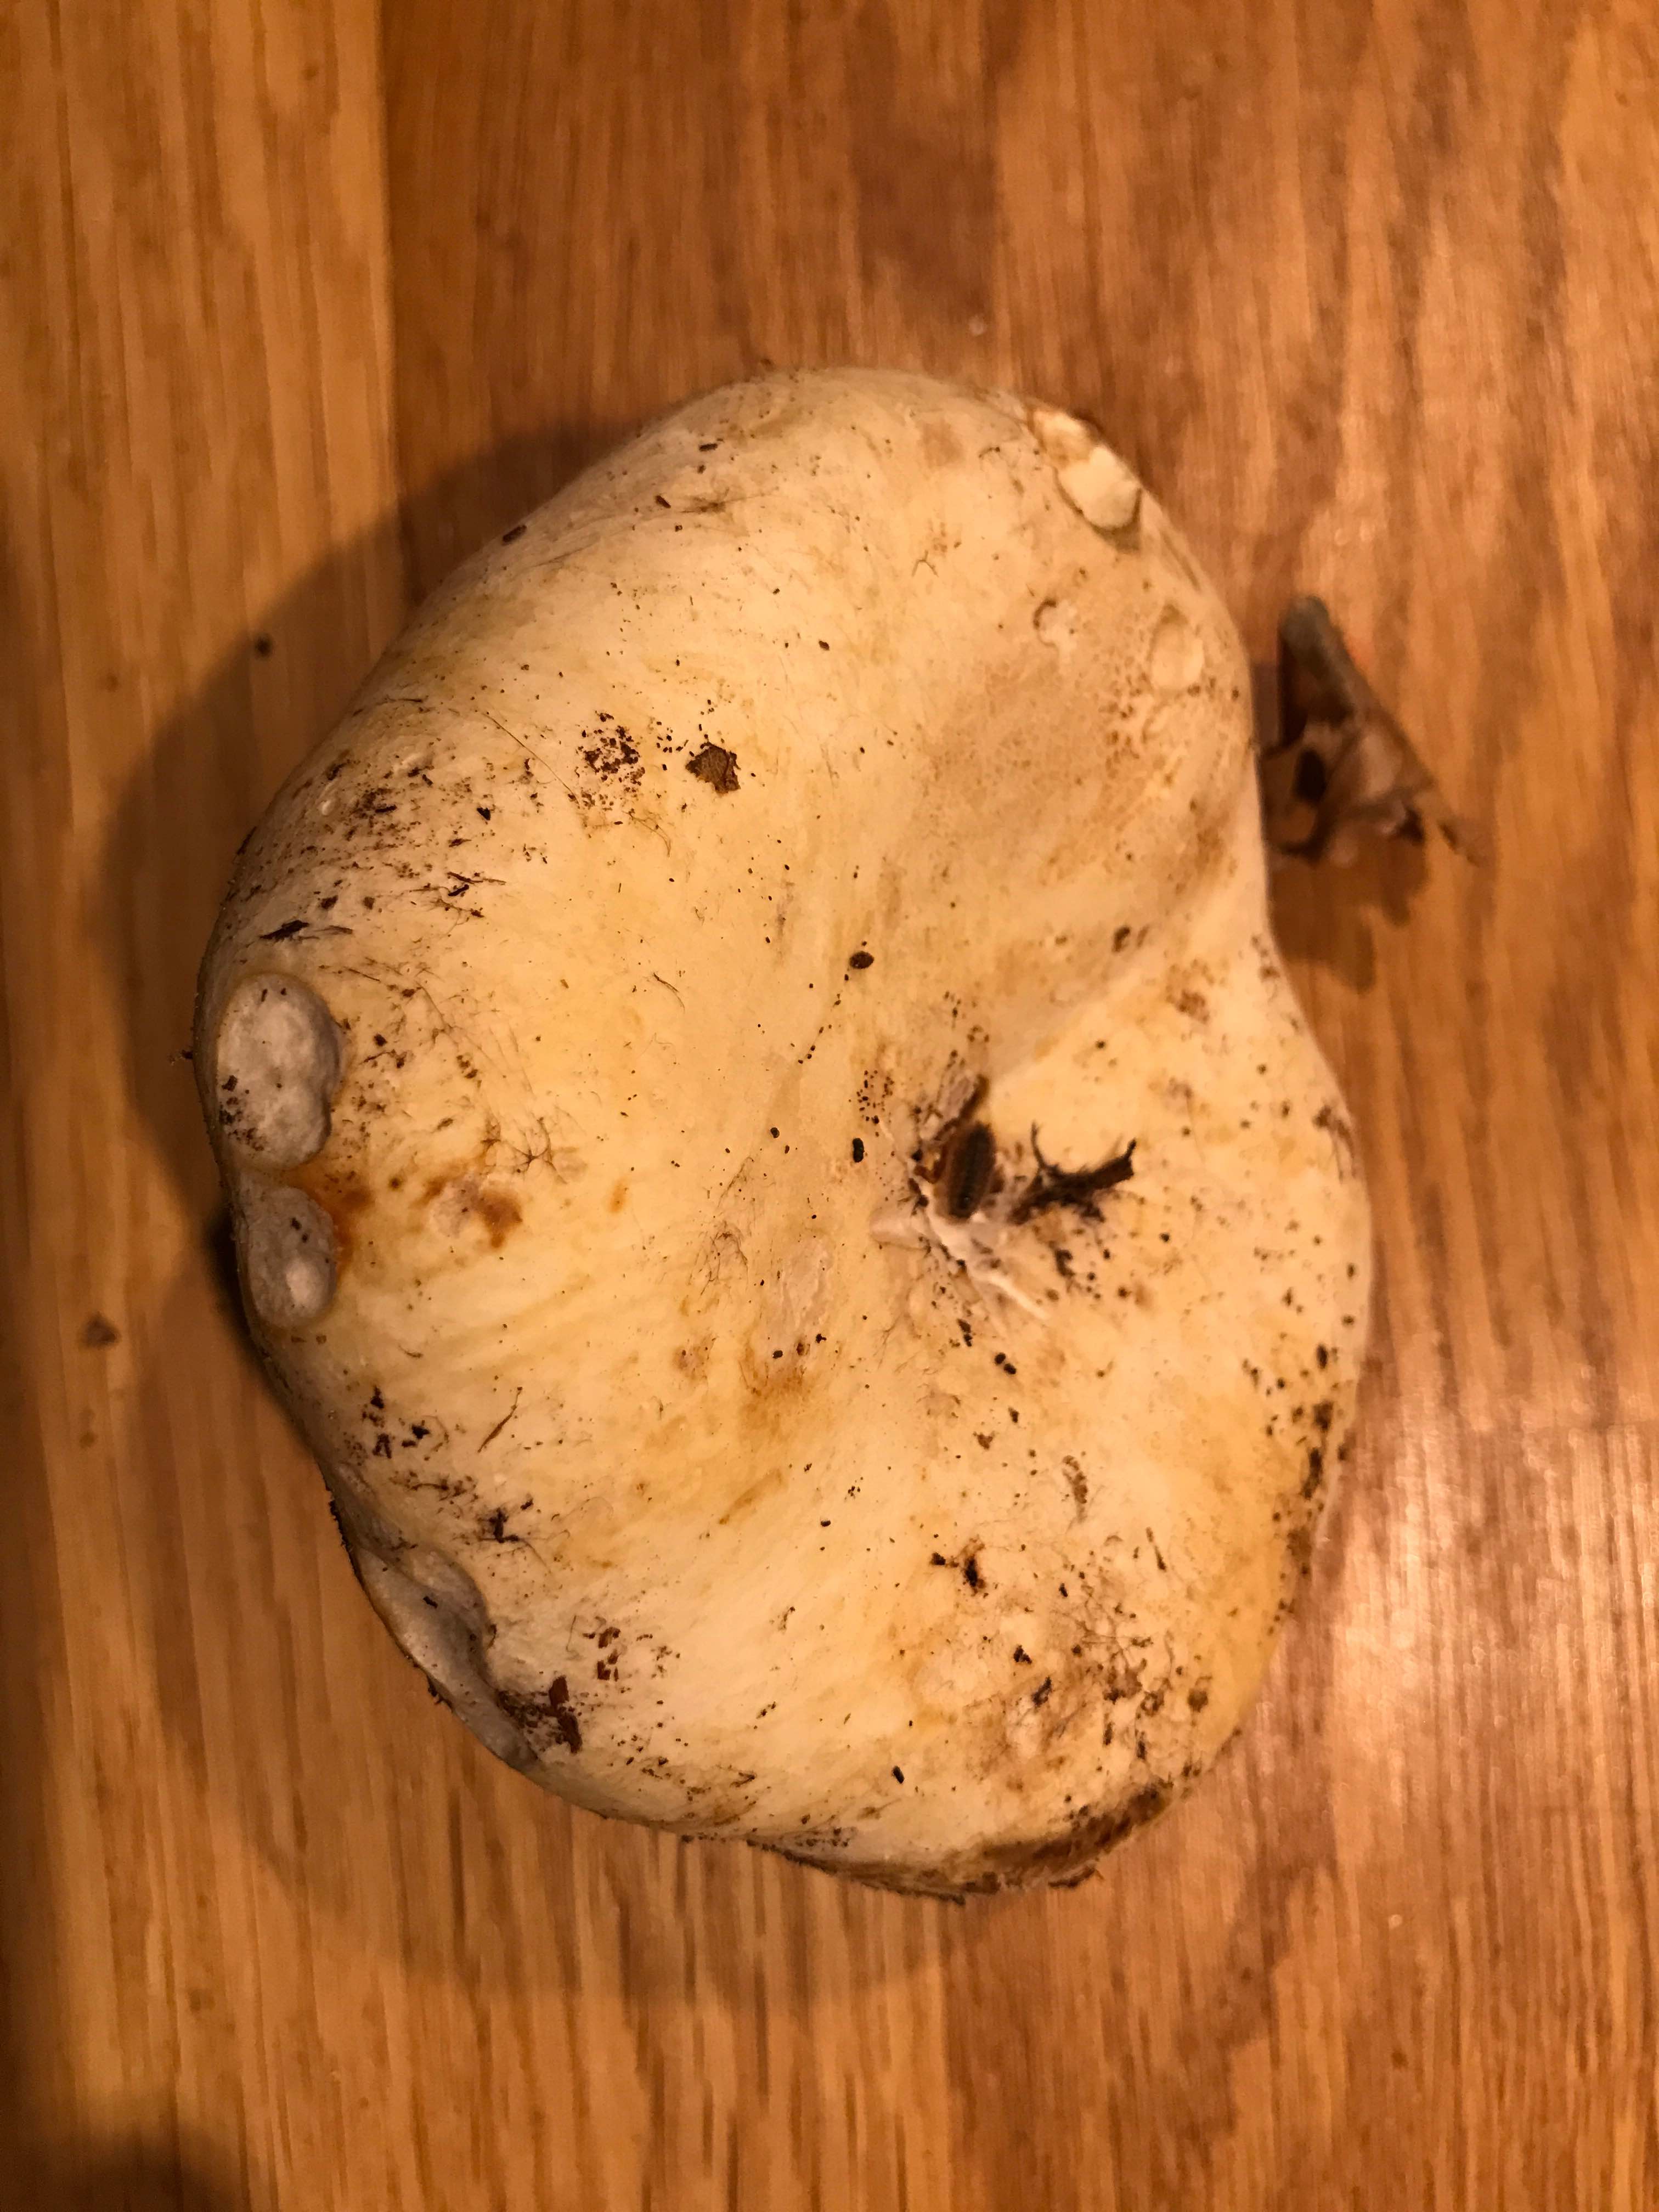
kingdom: Fungi
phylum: Basidiomycota
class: Agaricomycetes
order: Russulales
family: Russulaceae
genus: Russula
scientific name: Russula
